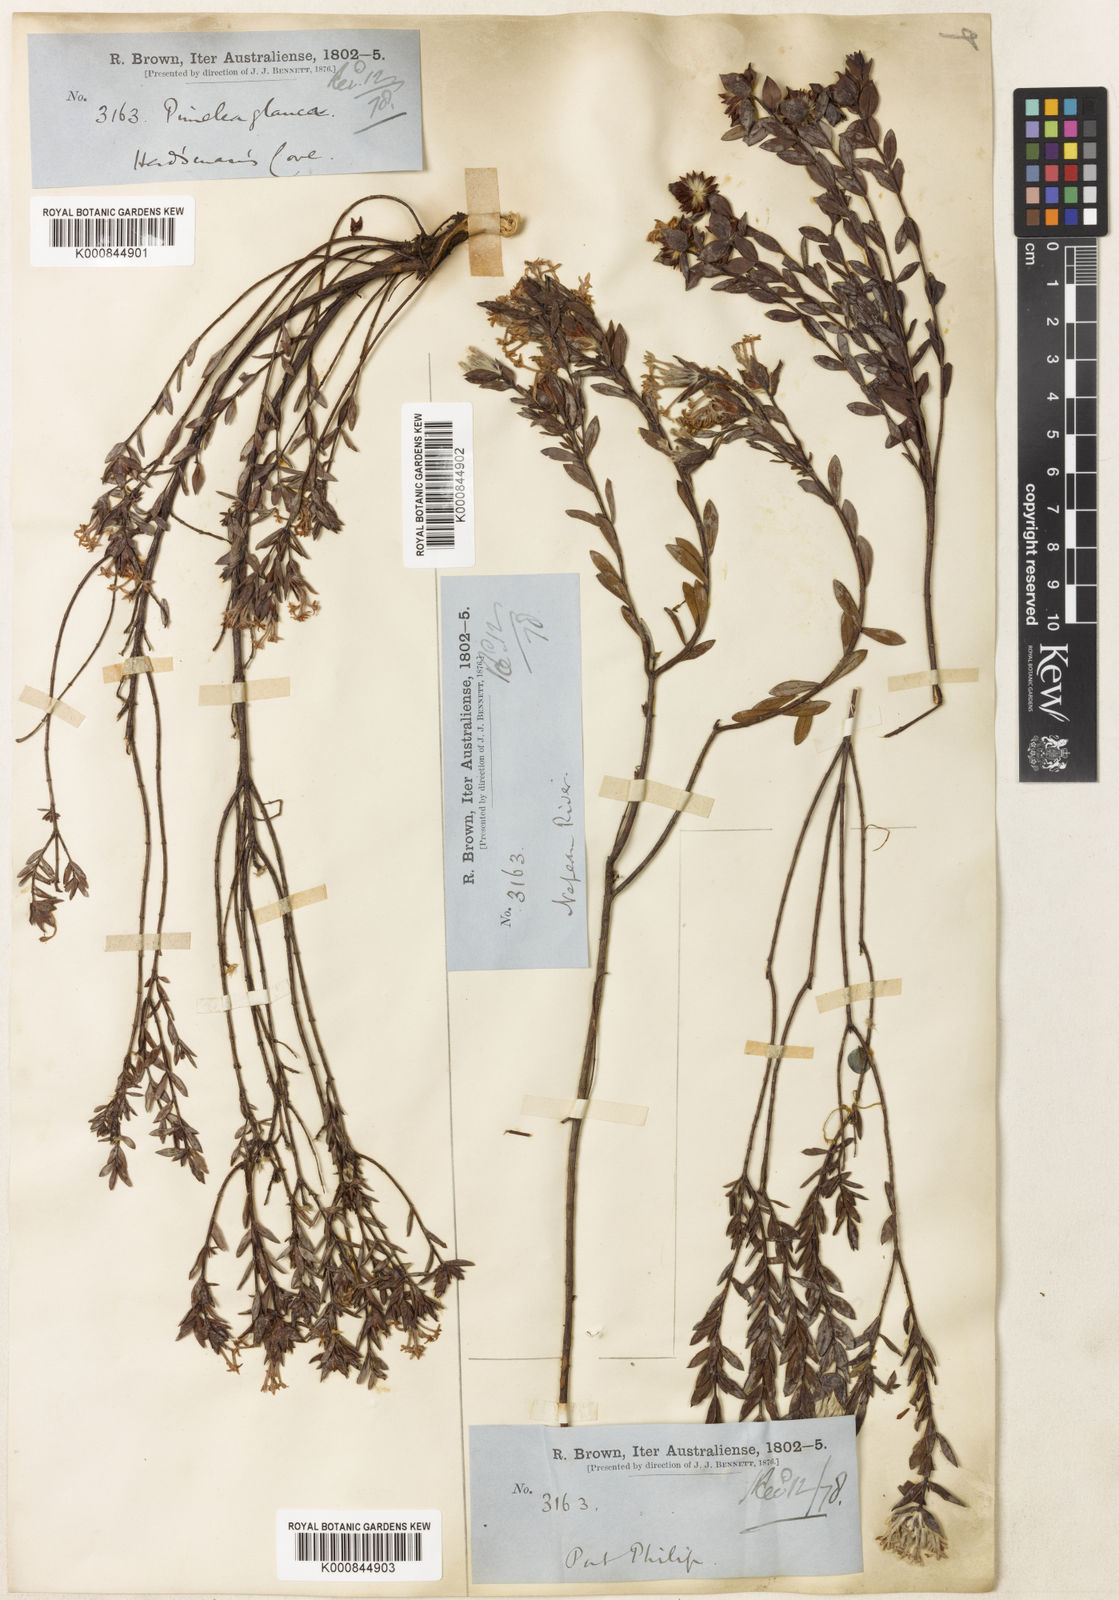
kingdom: Plantae
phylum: Tracheophyta
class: Magnoliopsida
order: Malvales
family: Thymelaeaceae
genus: Pimelea
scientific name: Pimelea glauca
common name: Smooth riceflower
